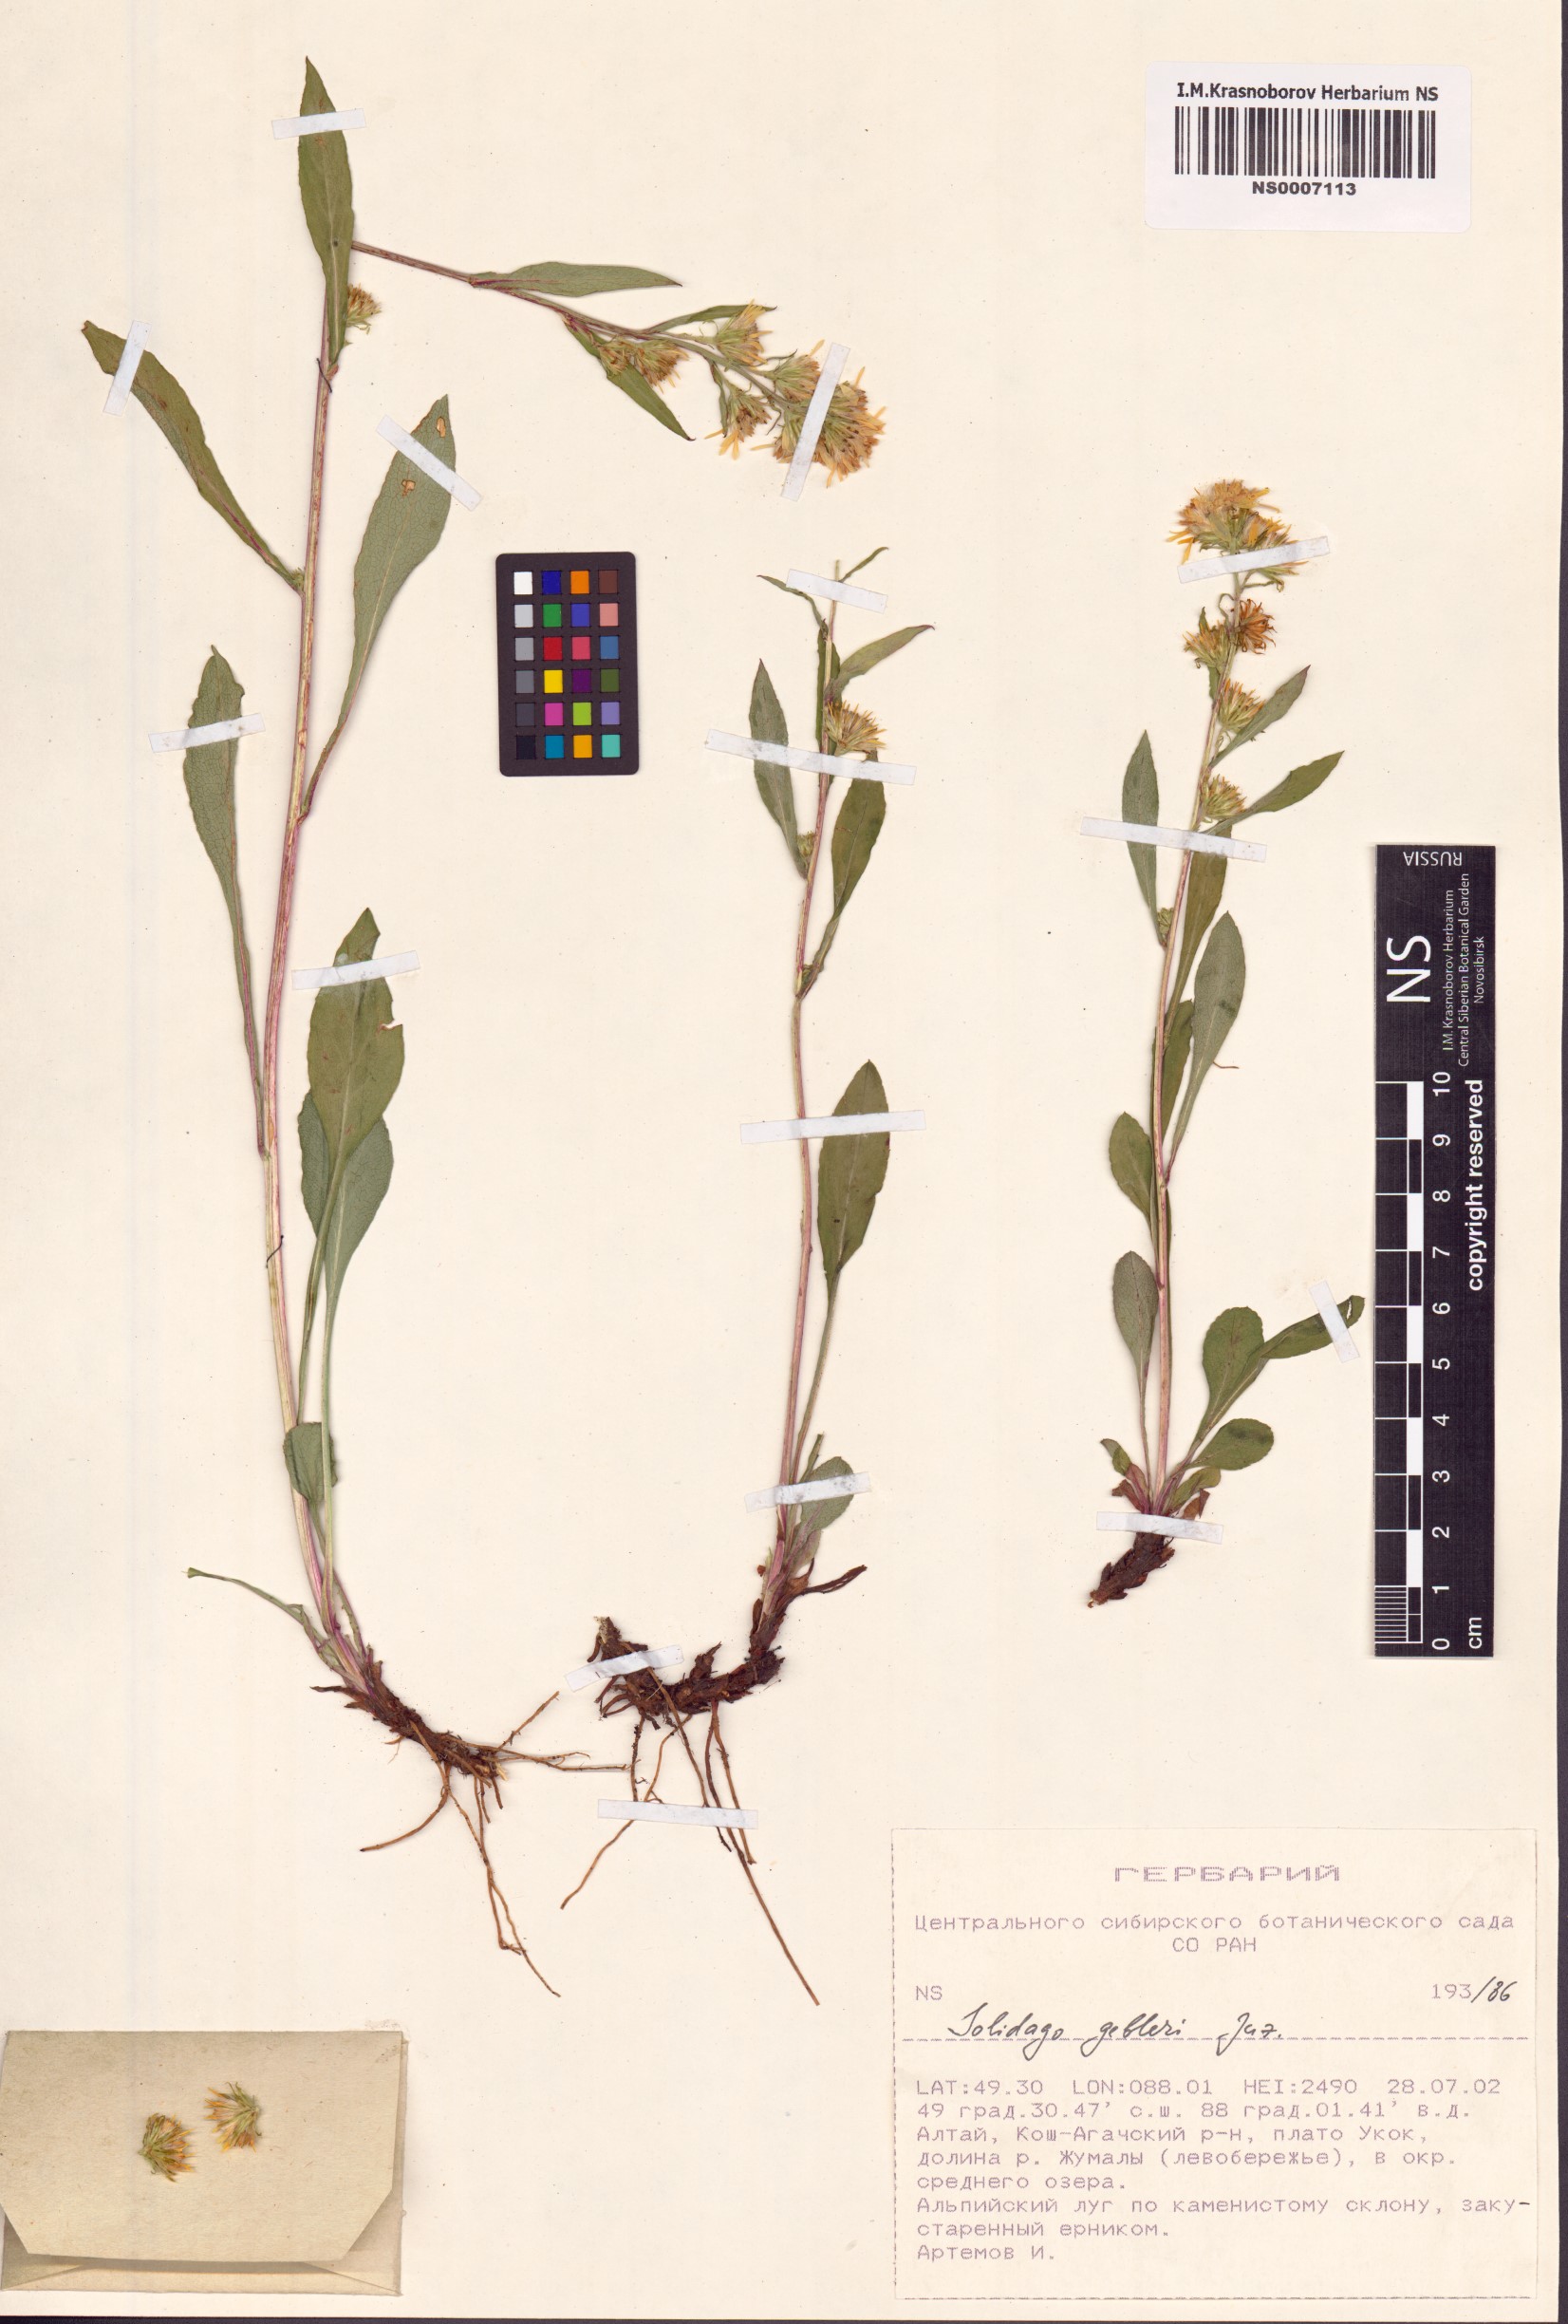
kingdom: Plantae
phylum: Tracheophyta
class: Magnoliopsida
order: Asterales
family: Asteraceae
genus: Solidago
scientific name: Solidago dahurica
